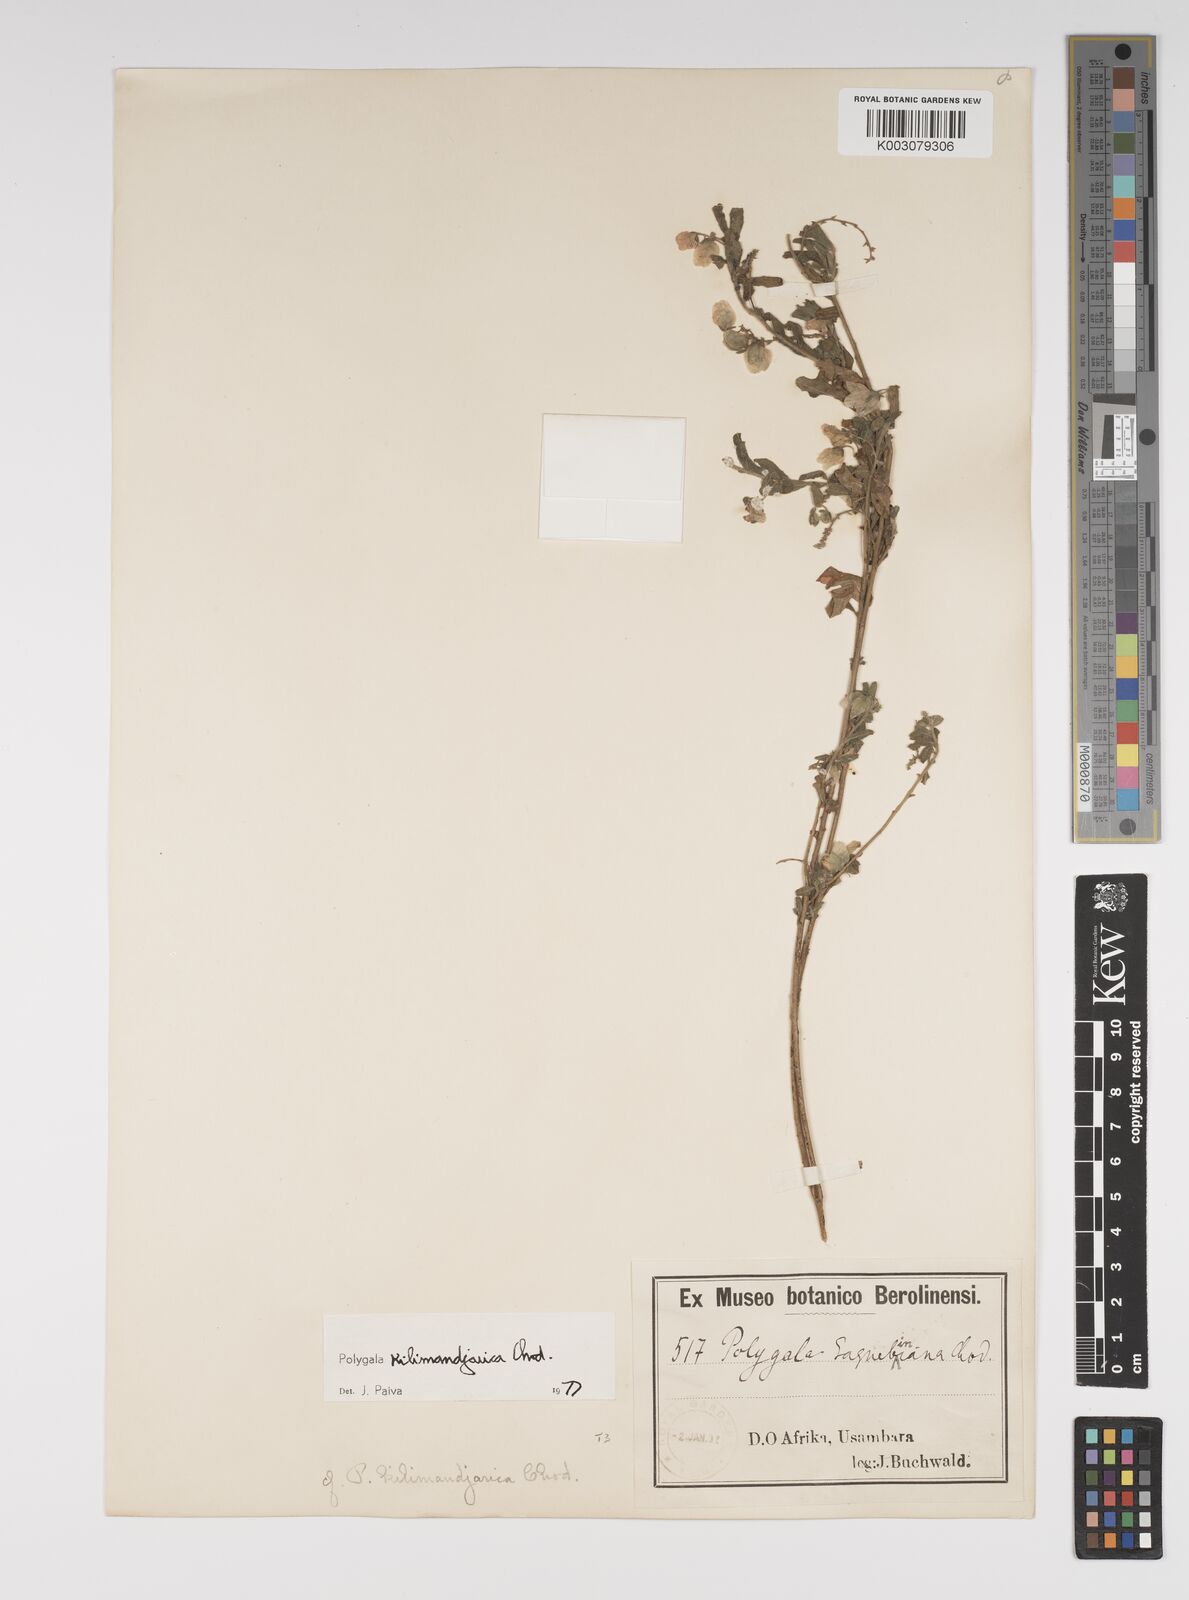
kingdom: Plantae
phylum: Tracheophyta
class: Magnoliopsida
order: Fabales
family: Polygalaceae
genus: Polygala
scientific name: Polygala kilimandjarica
